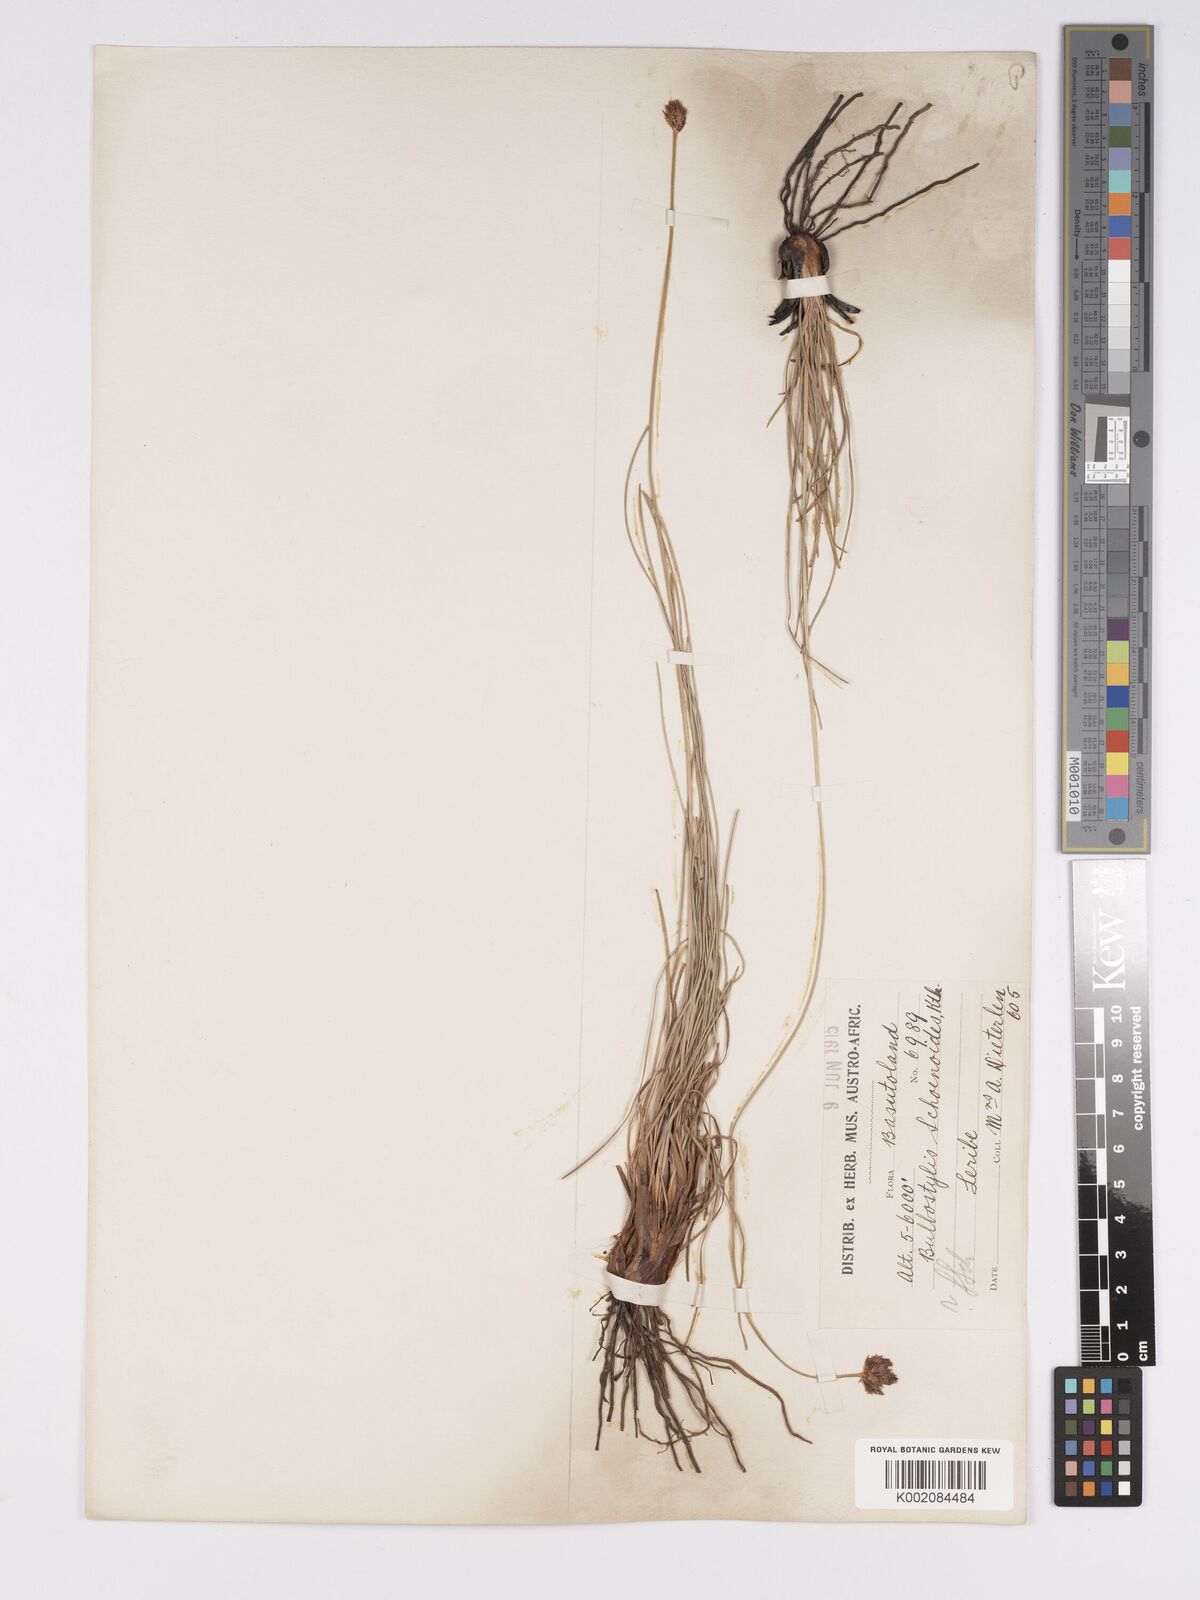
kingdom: Plantae
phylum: Tracheophyta
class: Liliopsida
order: Poales
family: Cyperaceae
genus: Bulbostylis
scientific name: Bulbostylis schoenoides
